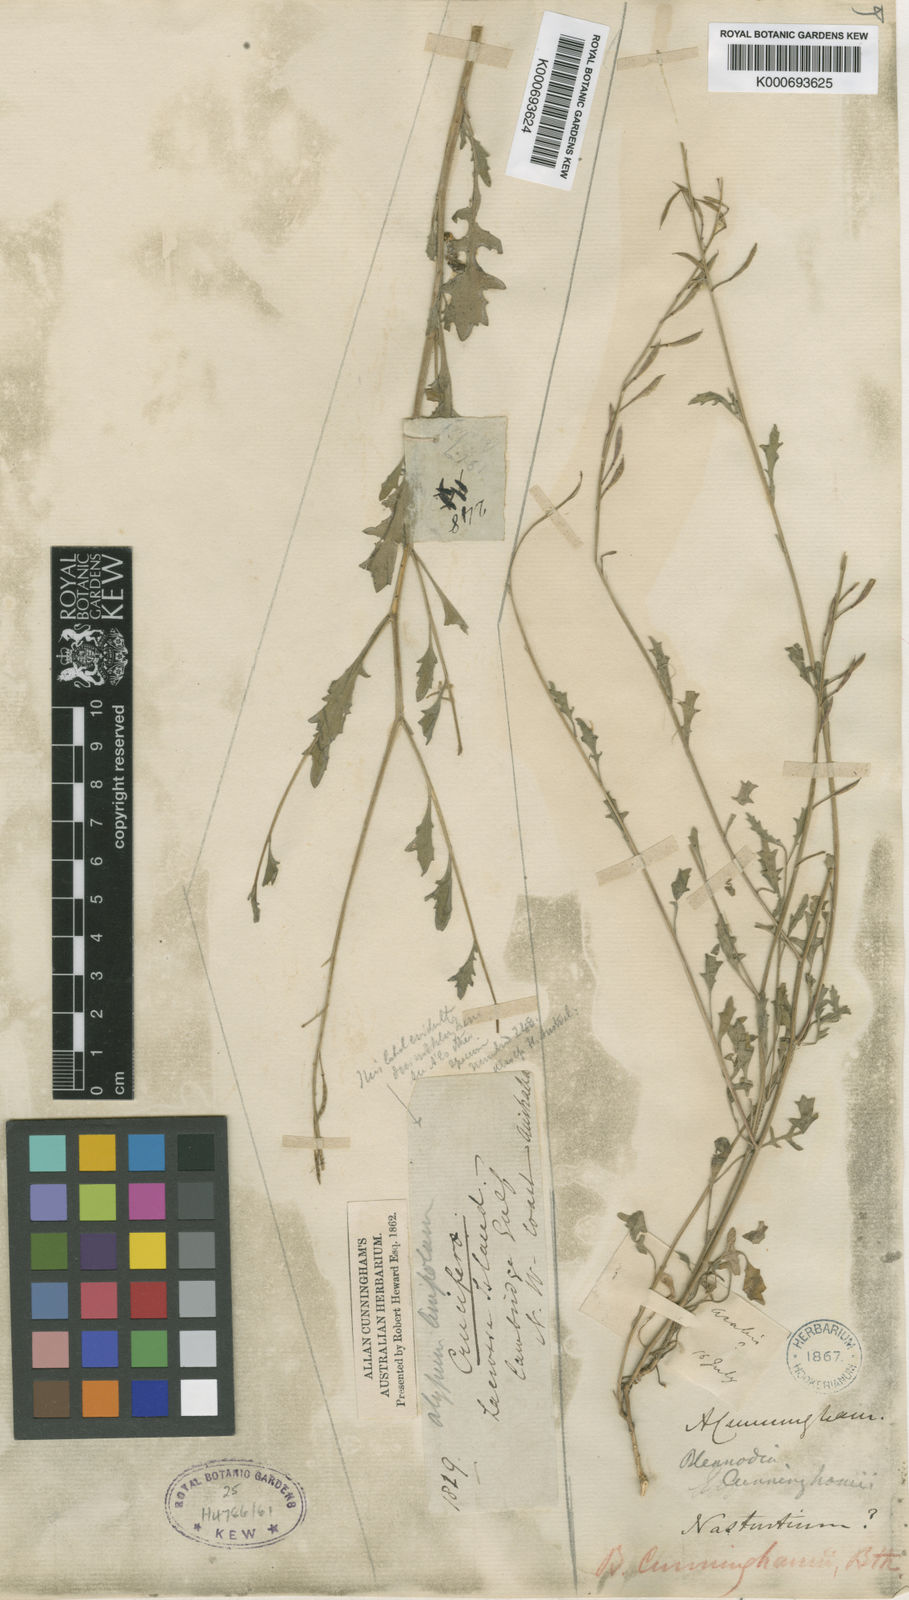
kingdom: Plantae
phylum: Tracheophyta
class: Magnoliopsida
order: Brassicales
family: Brassicaceae
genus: Harmsiodoxa
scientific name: Harmsiodoxa blennodioides
